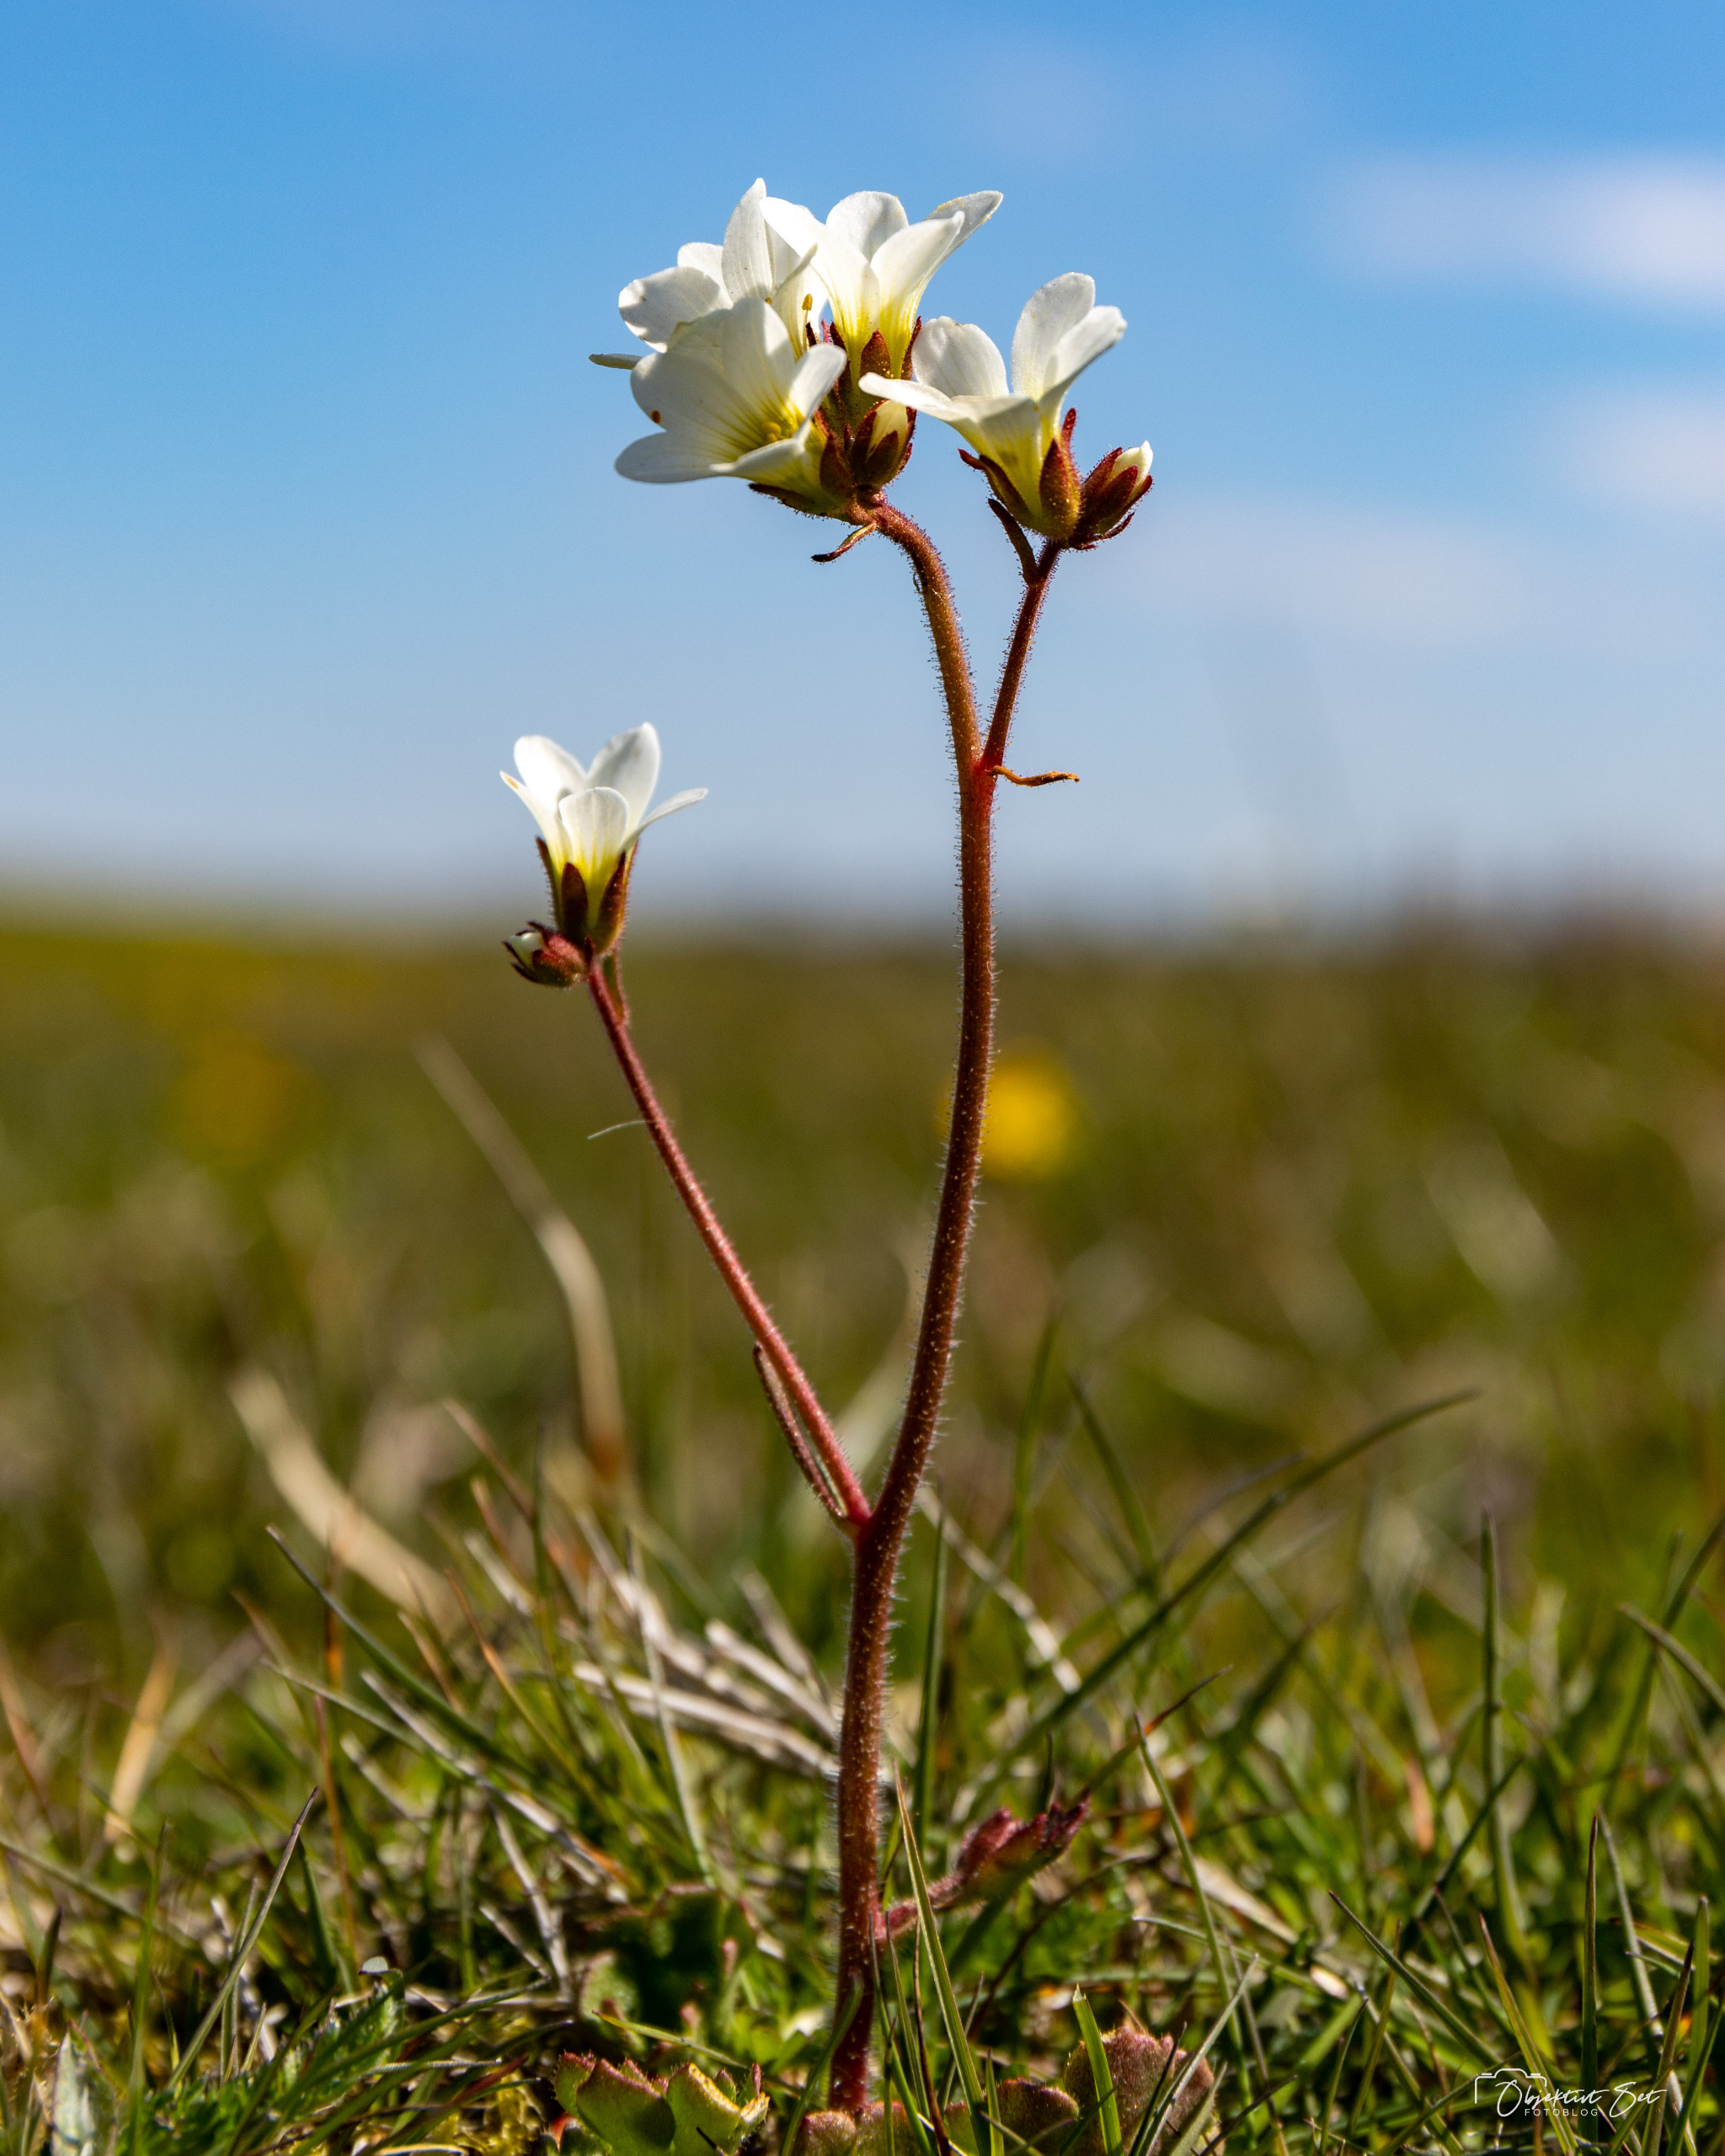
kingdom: Plantae
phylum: Tracheophyta
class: Magnoliopsida
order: Saxifragales
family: Saxifragaceae
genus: Saxifraga
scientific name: Saxifraga granulata
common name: Kornet stenbræk
